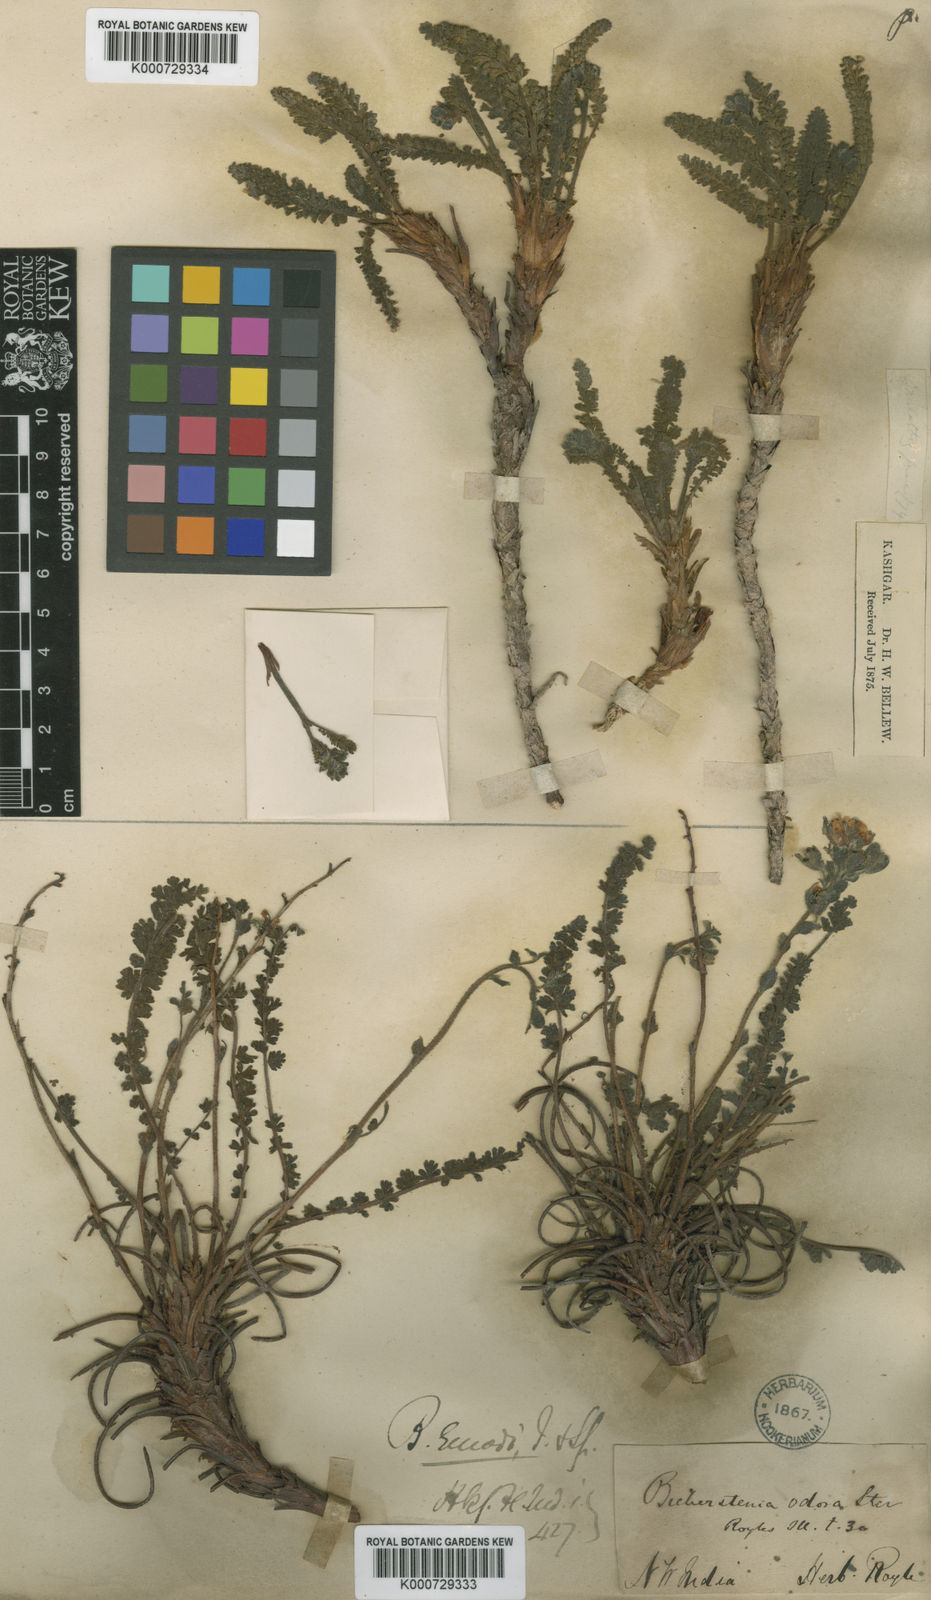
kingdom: Plantae
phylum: Tracheophyta
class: Magnoliopsida
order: Sapindales
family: Biebersteiniaceae
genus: Biebersteinia
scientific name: Biebersteinia odora
